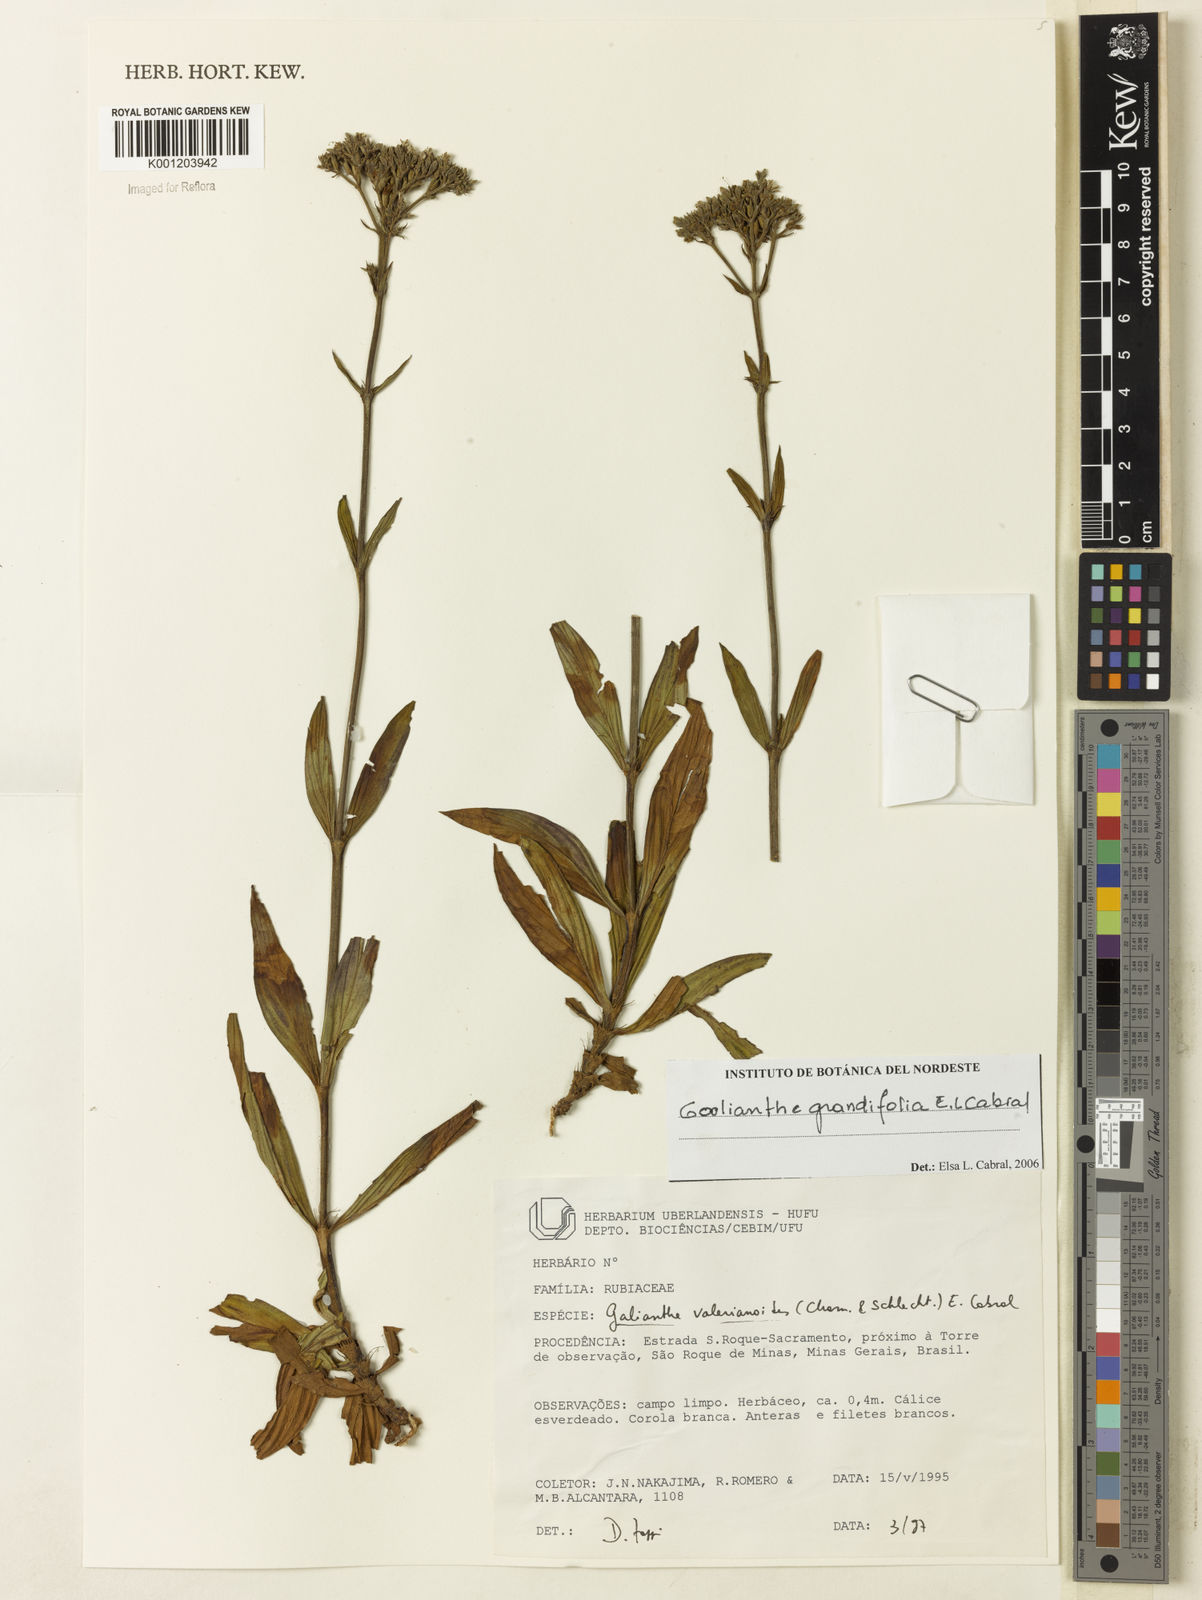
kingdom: Plantae
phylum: Tracheophyta
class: Magnoliopsida
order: Gentianales
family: Rubiaceae
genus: Galianthe
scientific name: Galianthe grandifolia
